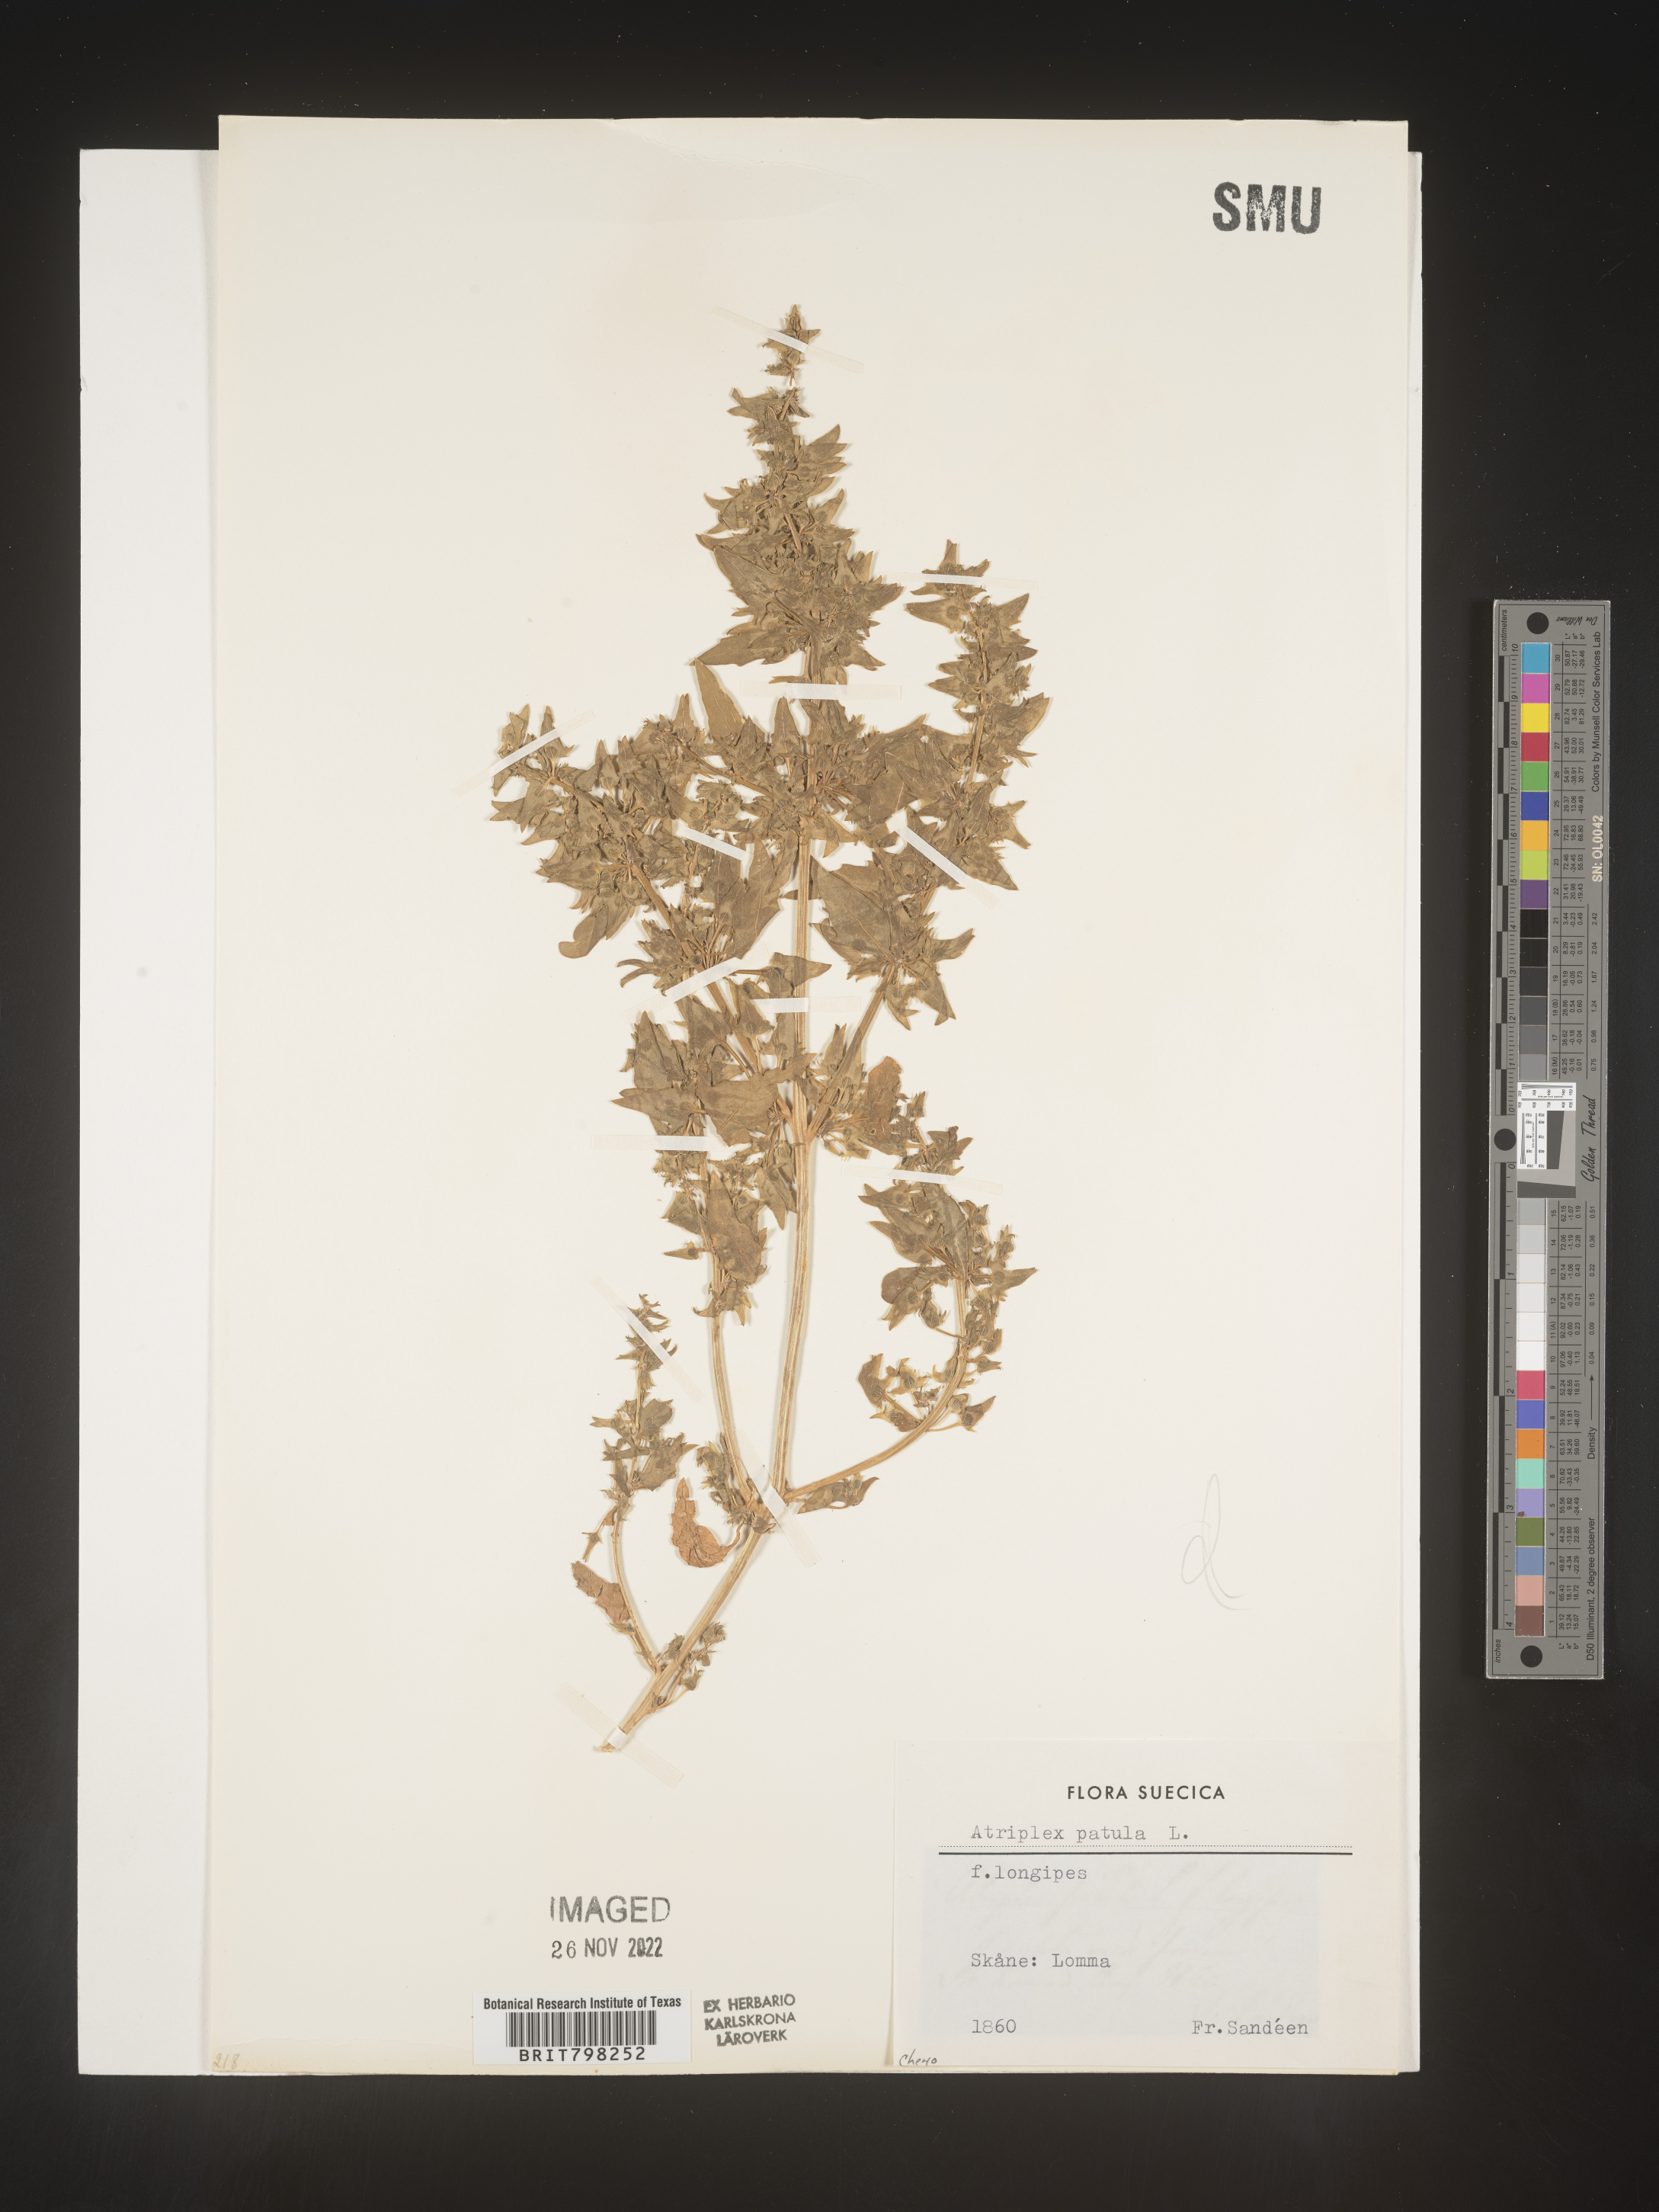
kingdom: Plantae
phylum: Tracheophyta
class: Magnoliopsida
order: Caryophyllales
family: Amaranthaceae
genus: Atriplex
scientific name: Atriplex patula
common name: Common orache
